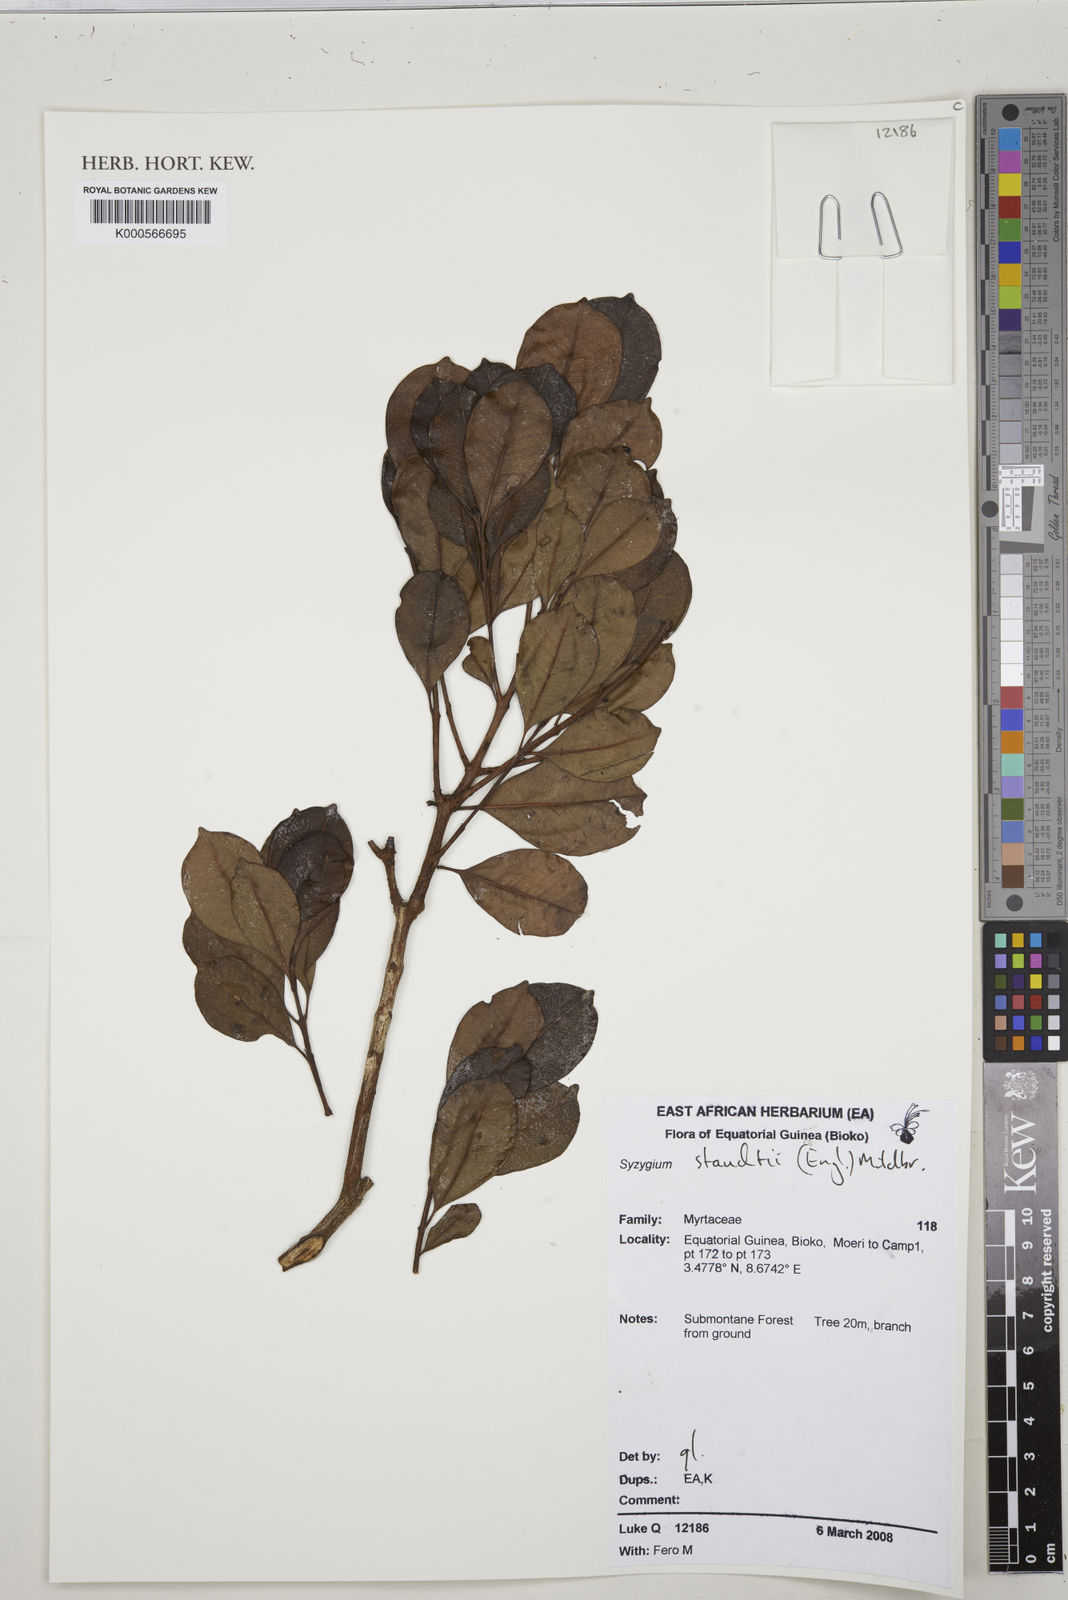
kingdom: Plantae
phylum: Tracheophyta
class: Magnoliopsida
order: Myrtales
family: Myrtaceae
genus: Syzygium
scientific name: Syzygium staudtii
